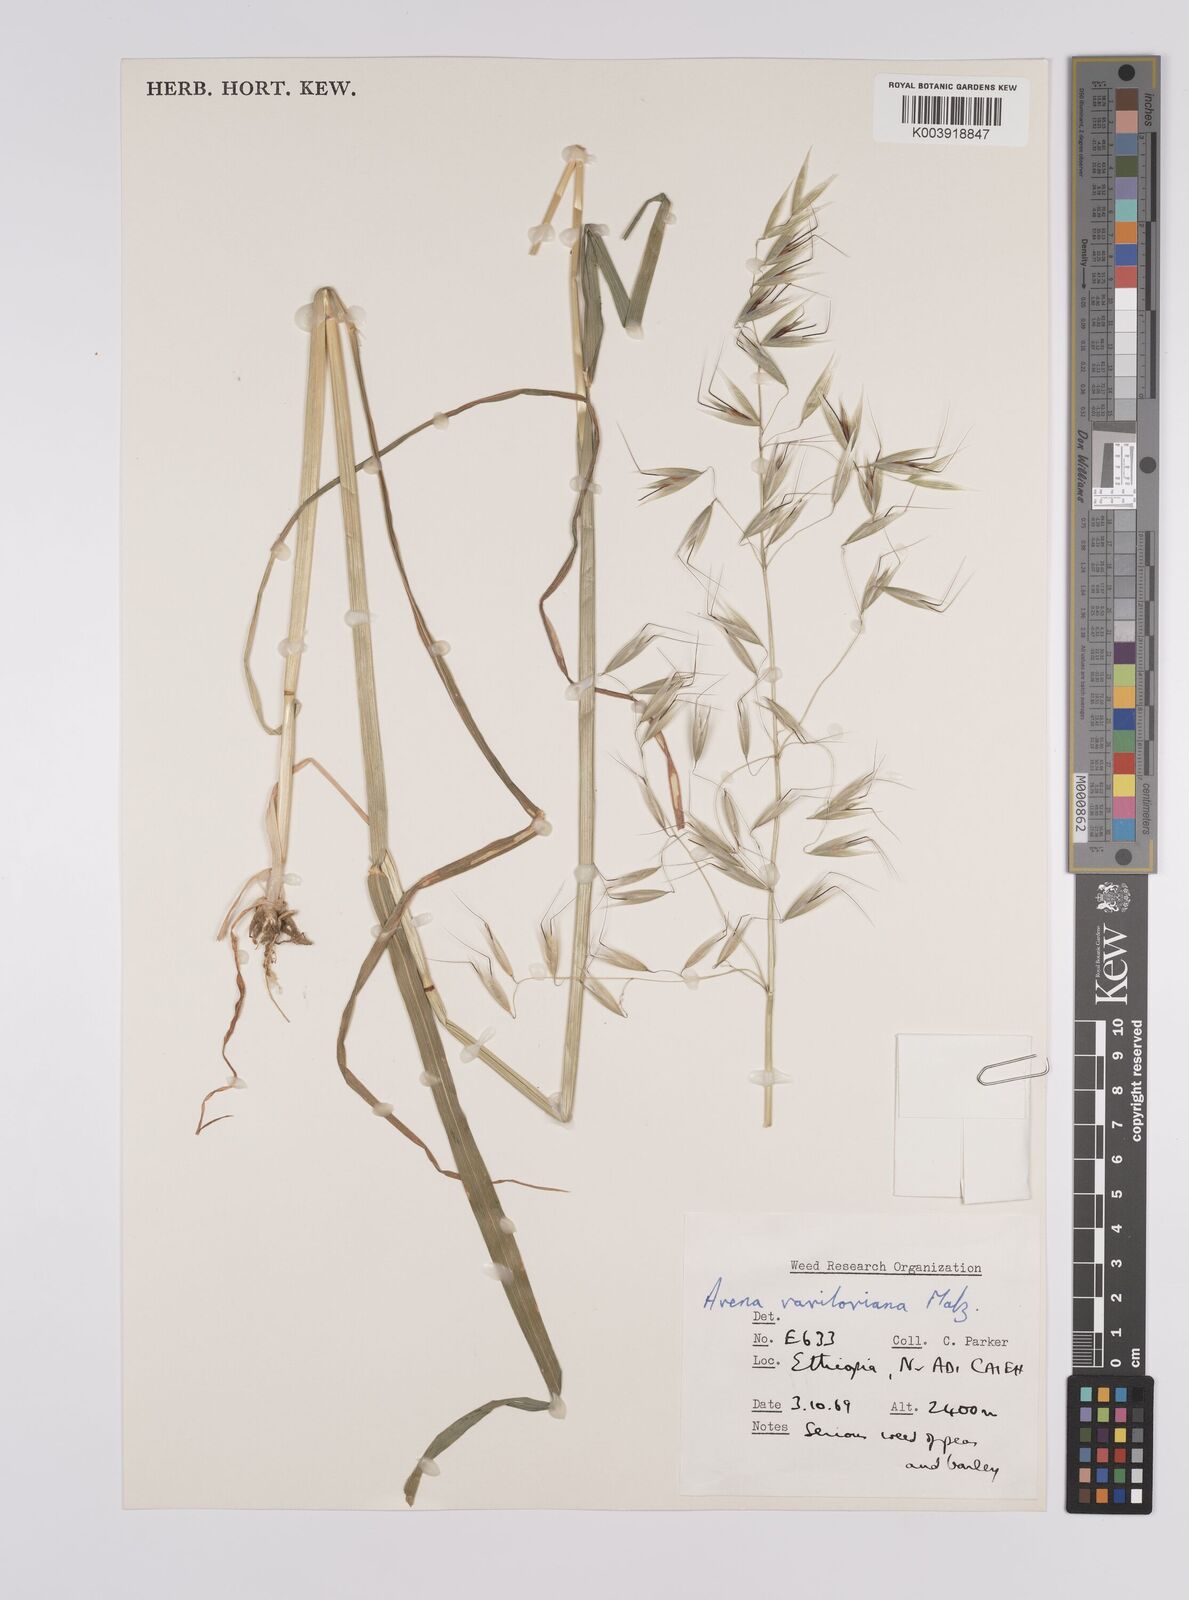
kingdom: Plantae
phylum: Tracheophyta
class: Liliopsida
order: Poales
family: Poaceae
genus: Avena
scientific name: Avena vaviloviana
